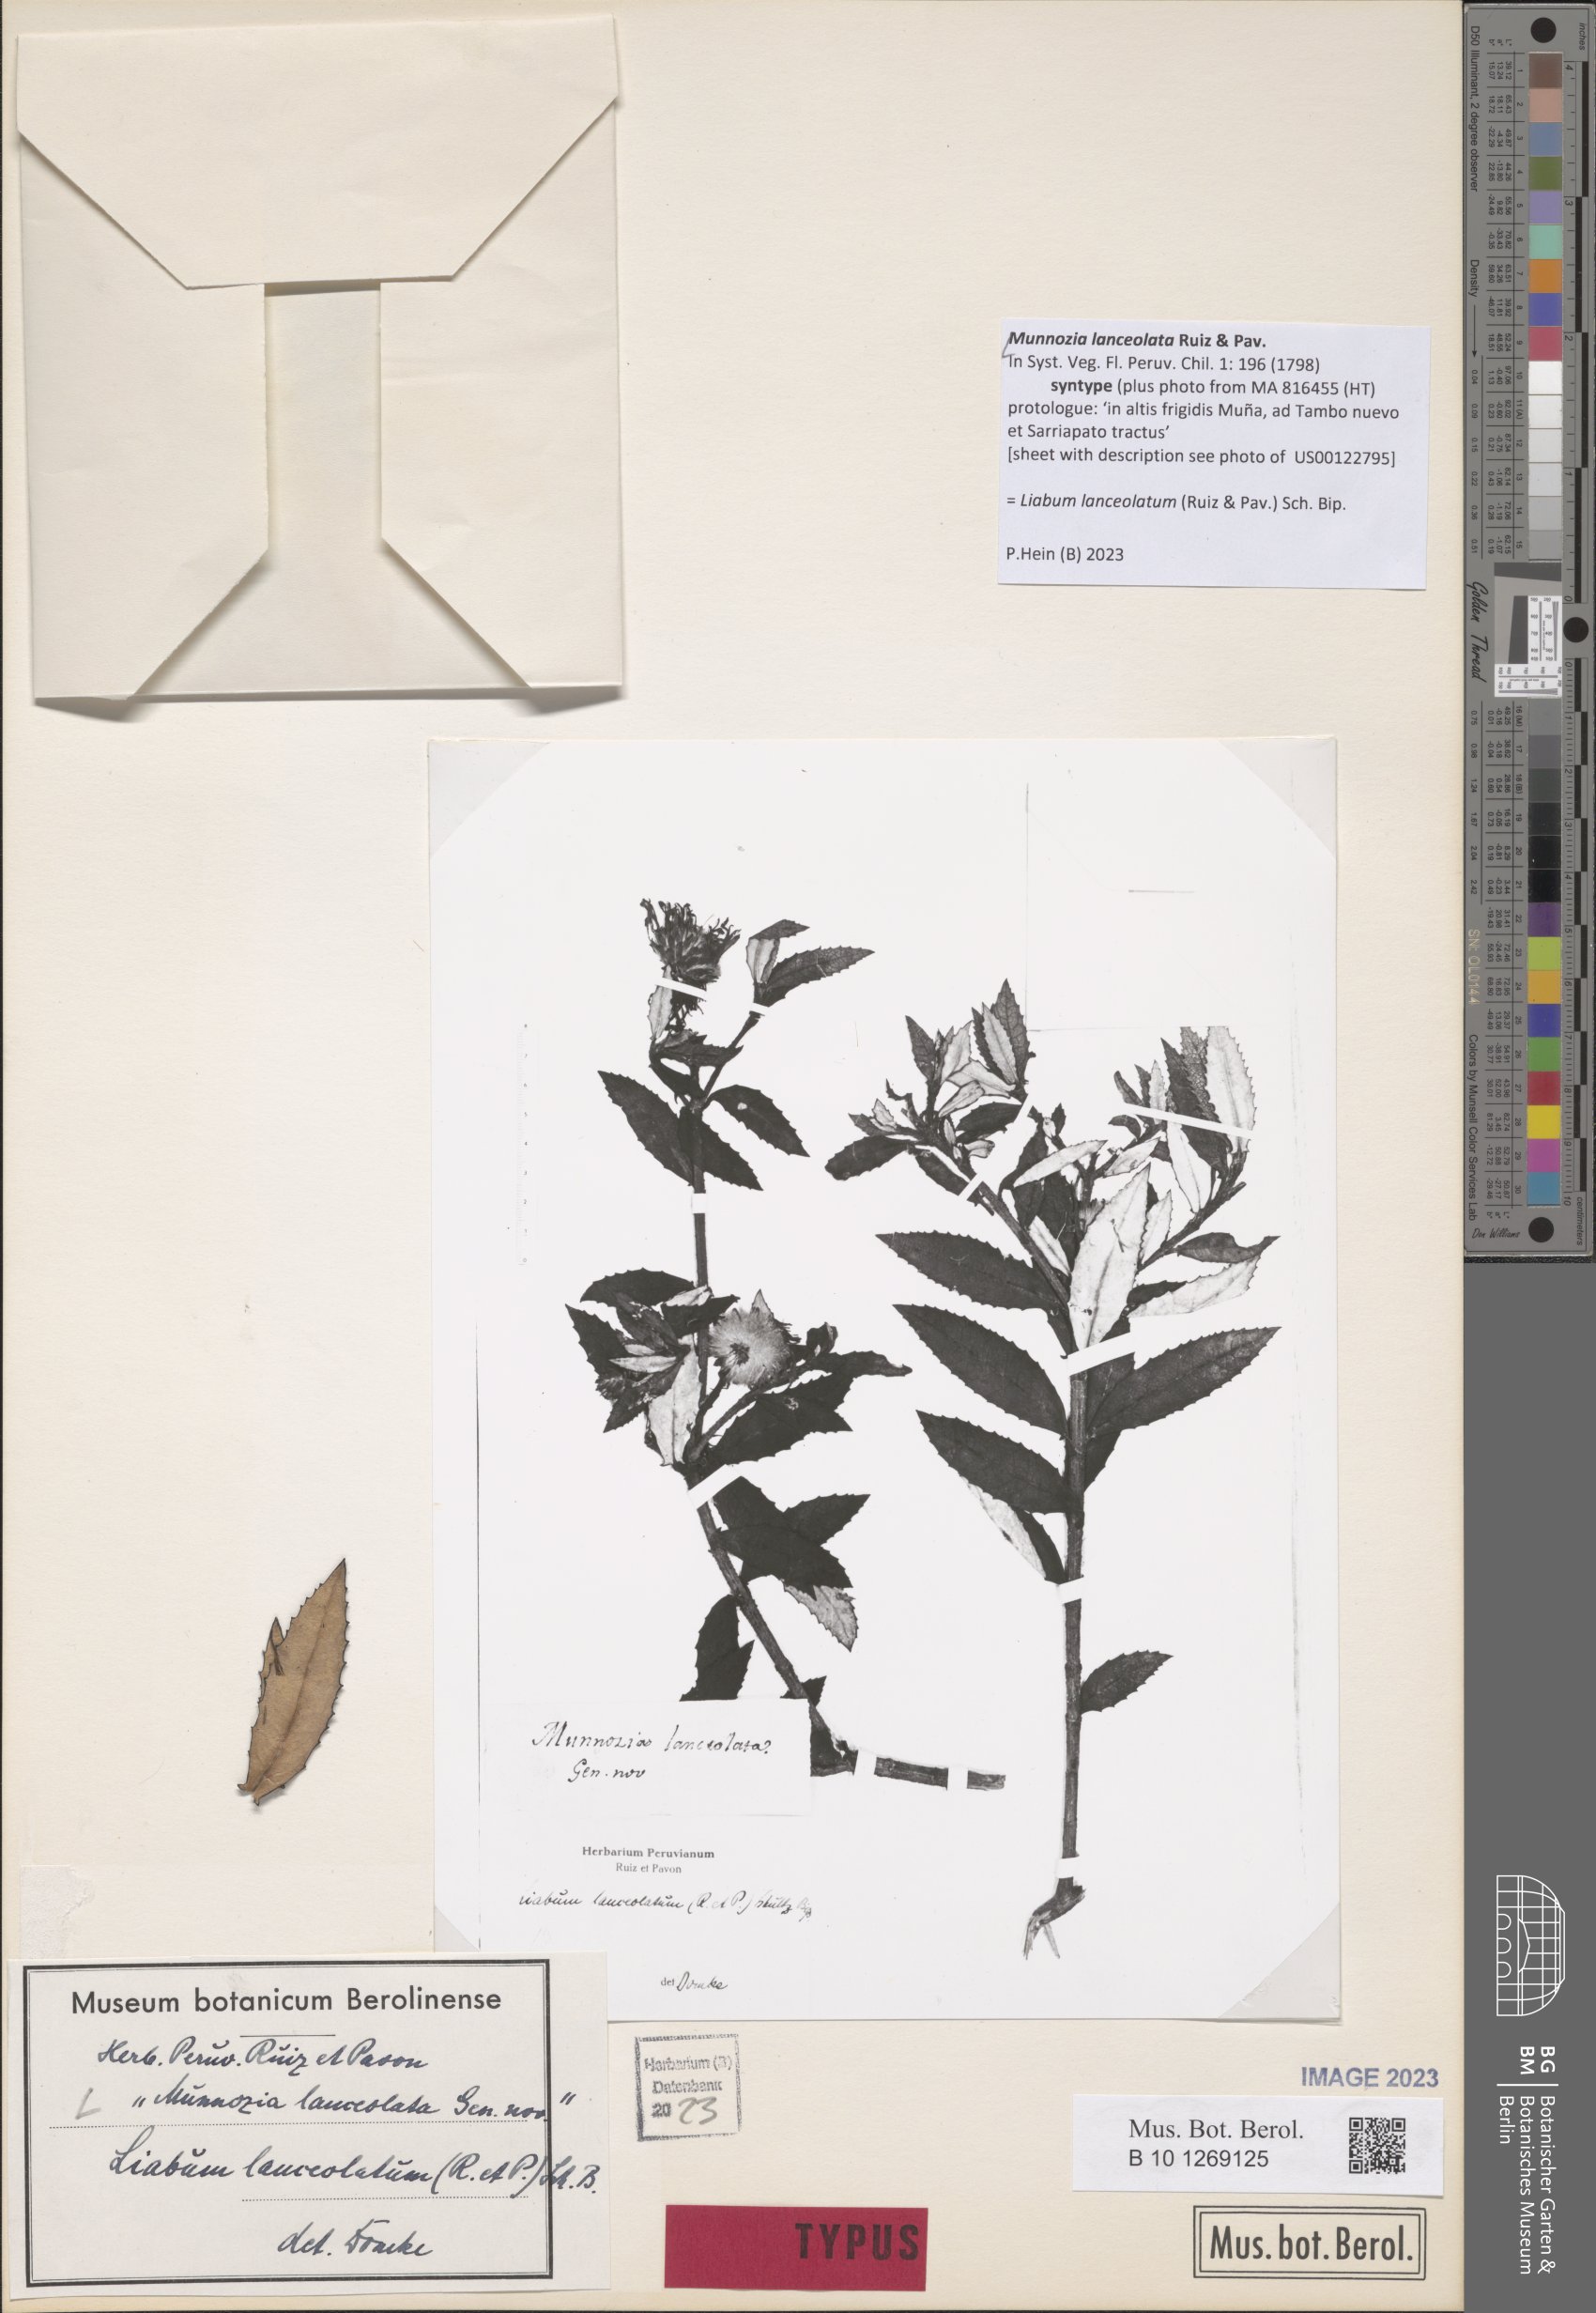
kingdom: Plantae
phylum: Tracheophyta
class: Magnoliopsida
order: Asterales
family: Asteraceae
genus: Munnozia
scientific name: Munnozia lanceolata
